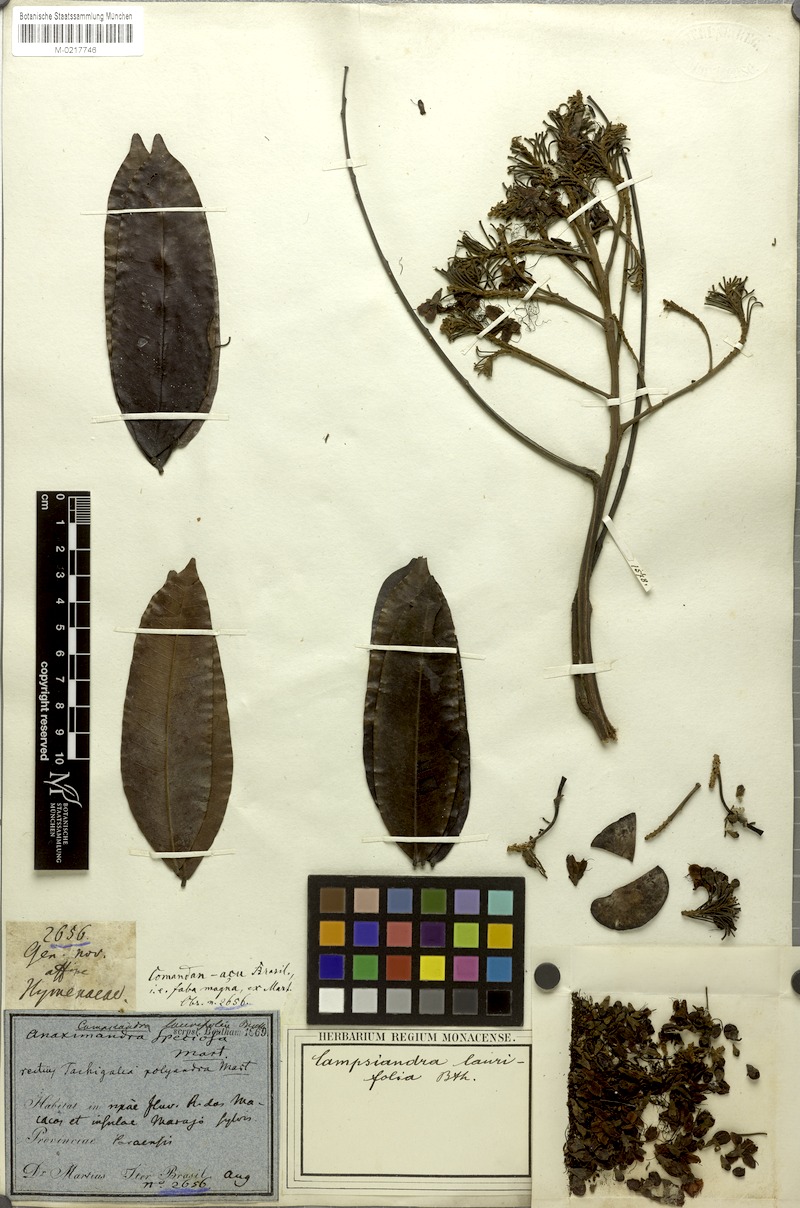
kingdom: Plantae
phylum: Tracheophyta
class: Magnoliopsida
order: Fabales
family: Fabaceae
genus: Campsiandra
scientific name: Campsiandra laurifolia
